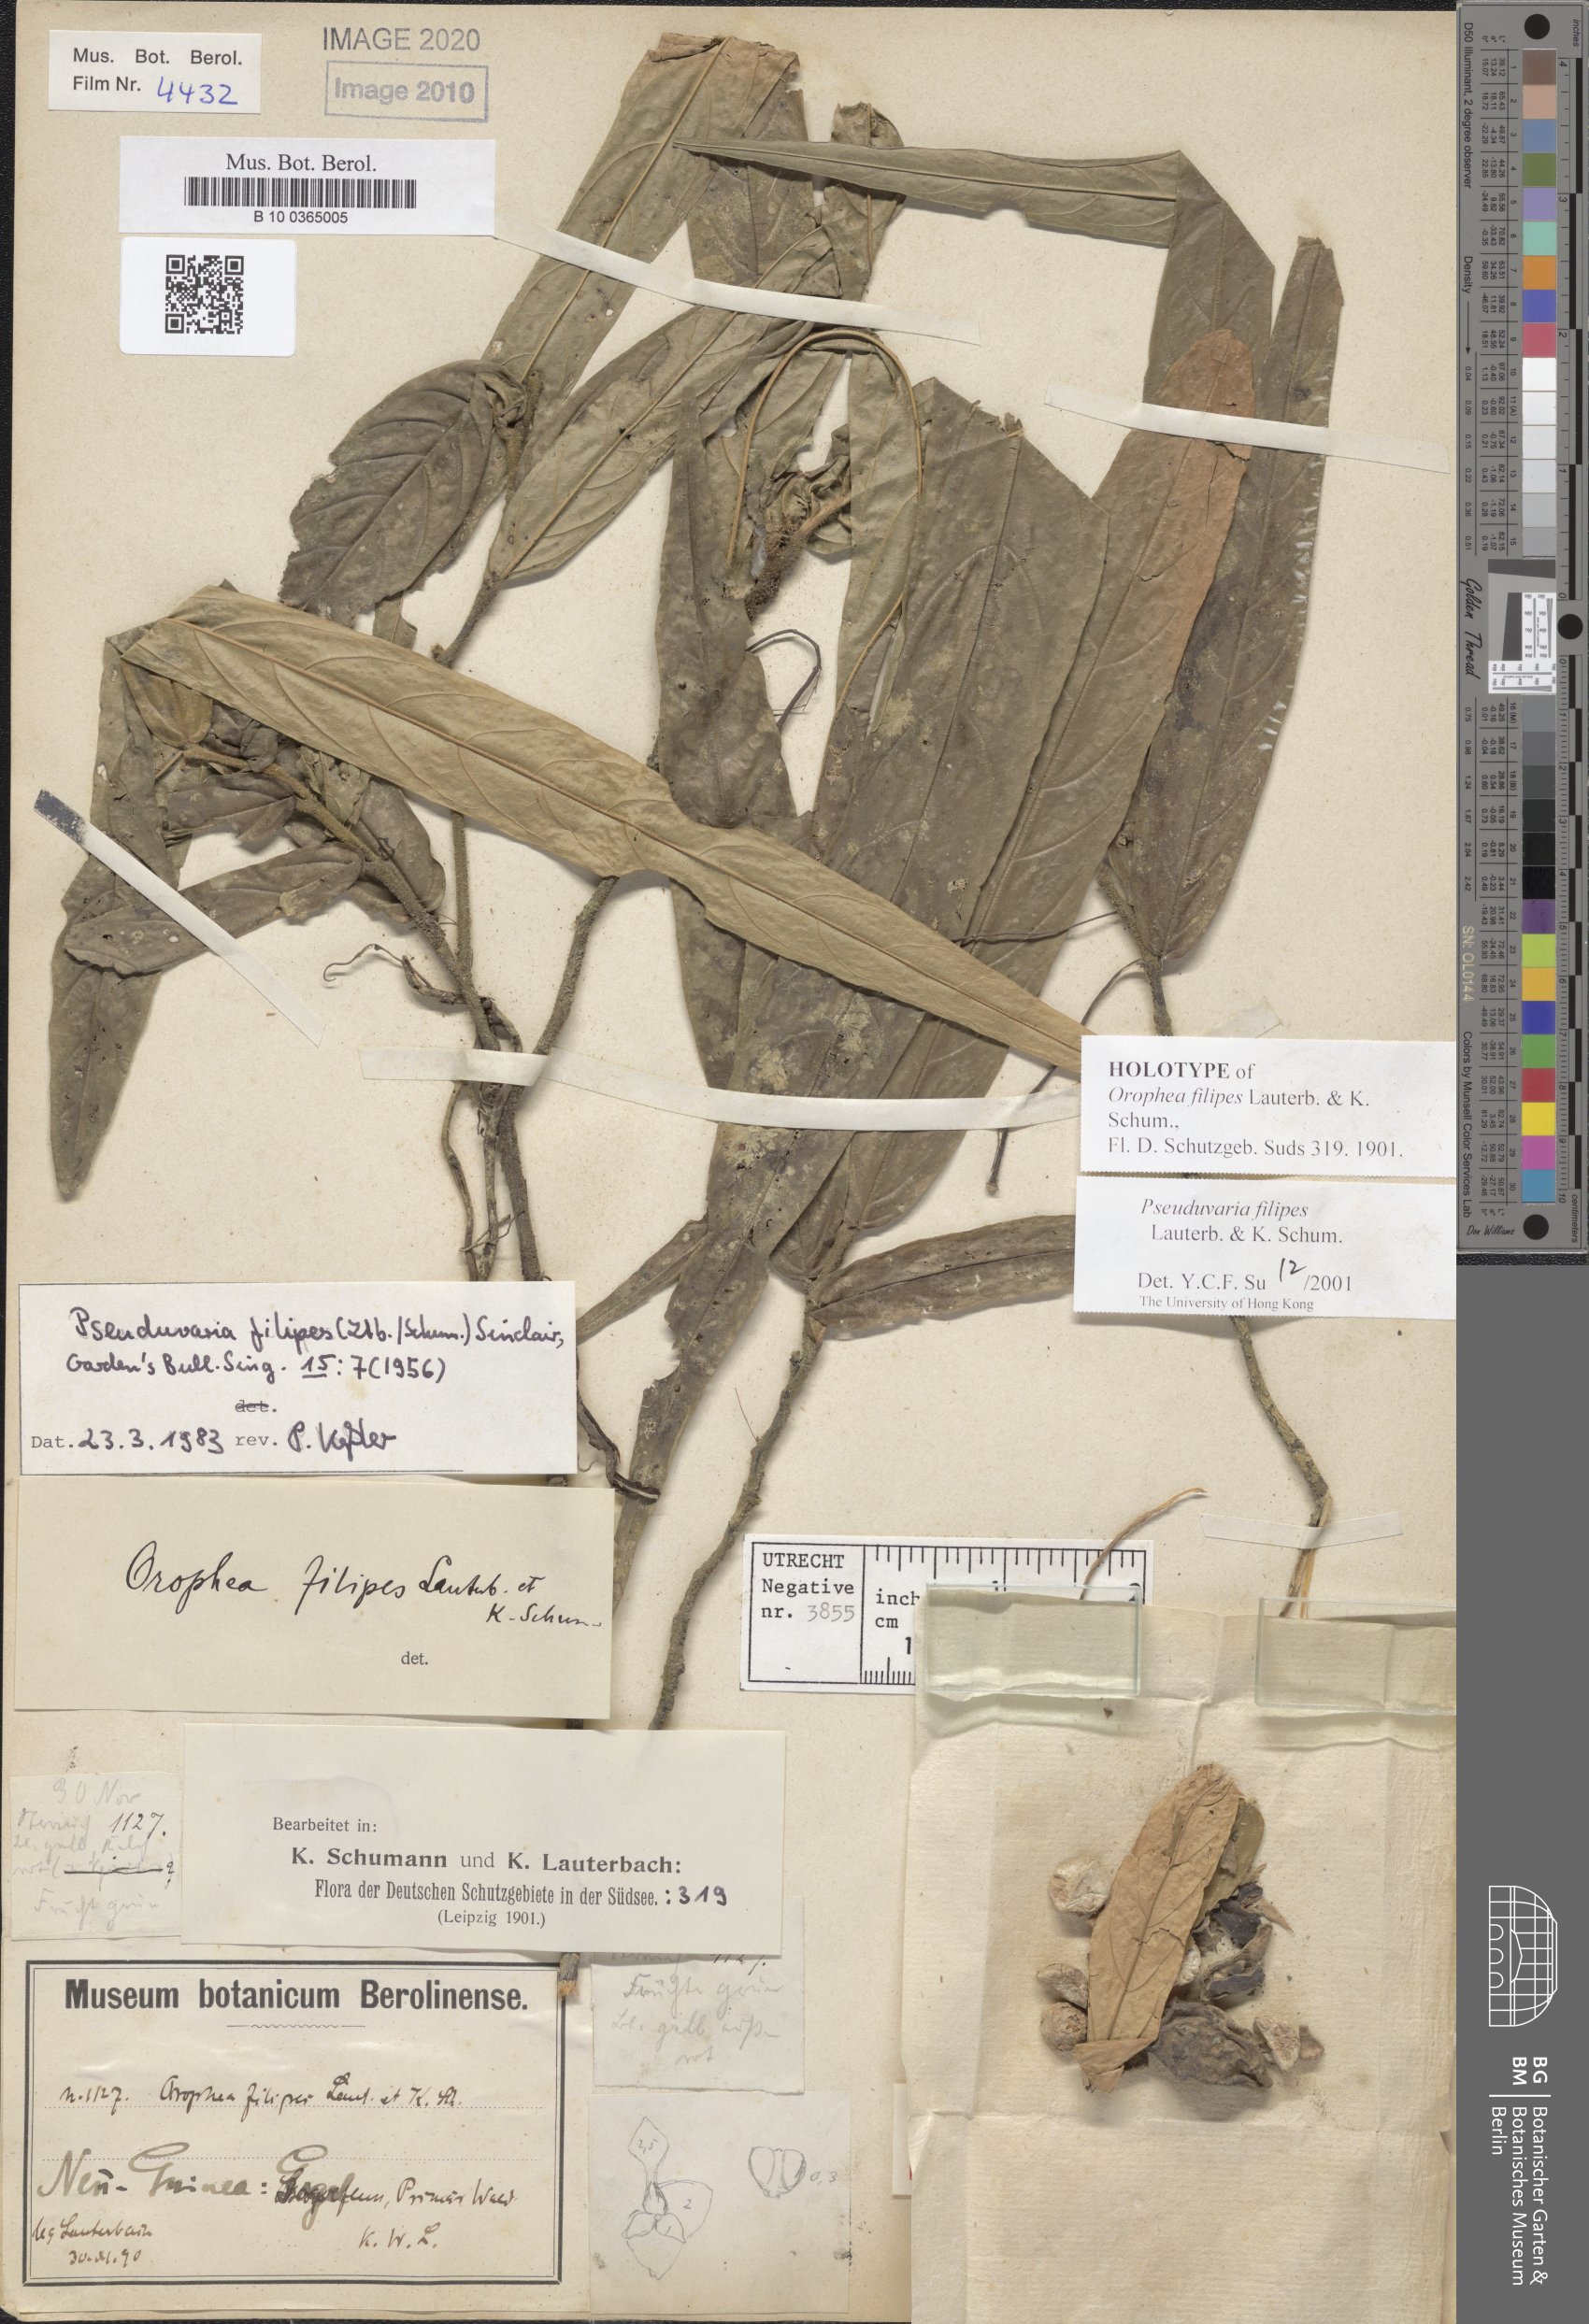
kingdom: Plantae
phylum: Tracheophyta
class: Magnoliopsida
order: Magnoliales
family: Annonaceae
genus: Pseuduvaria
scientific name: Pseuduvaria filipes
